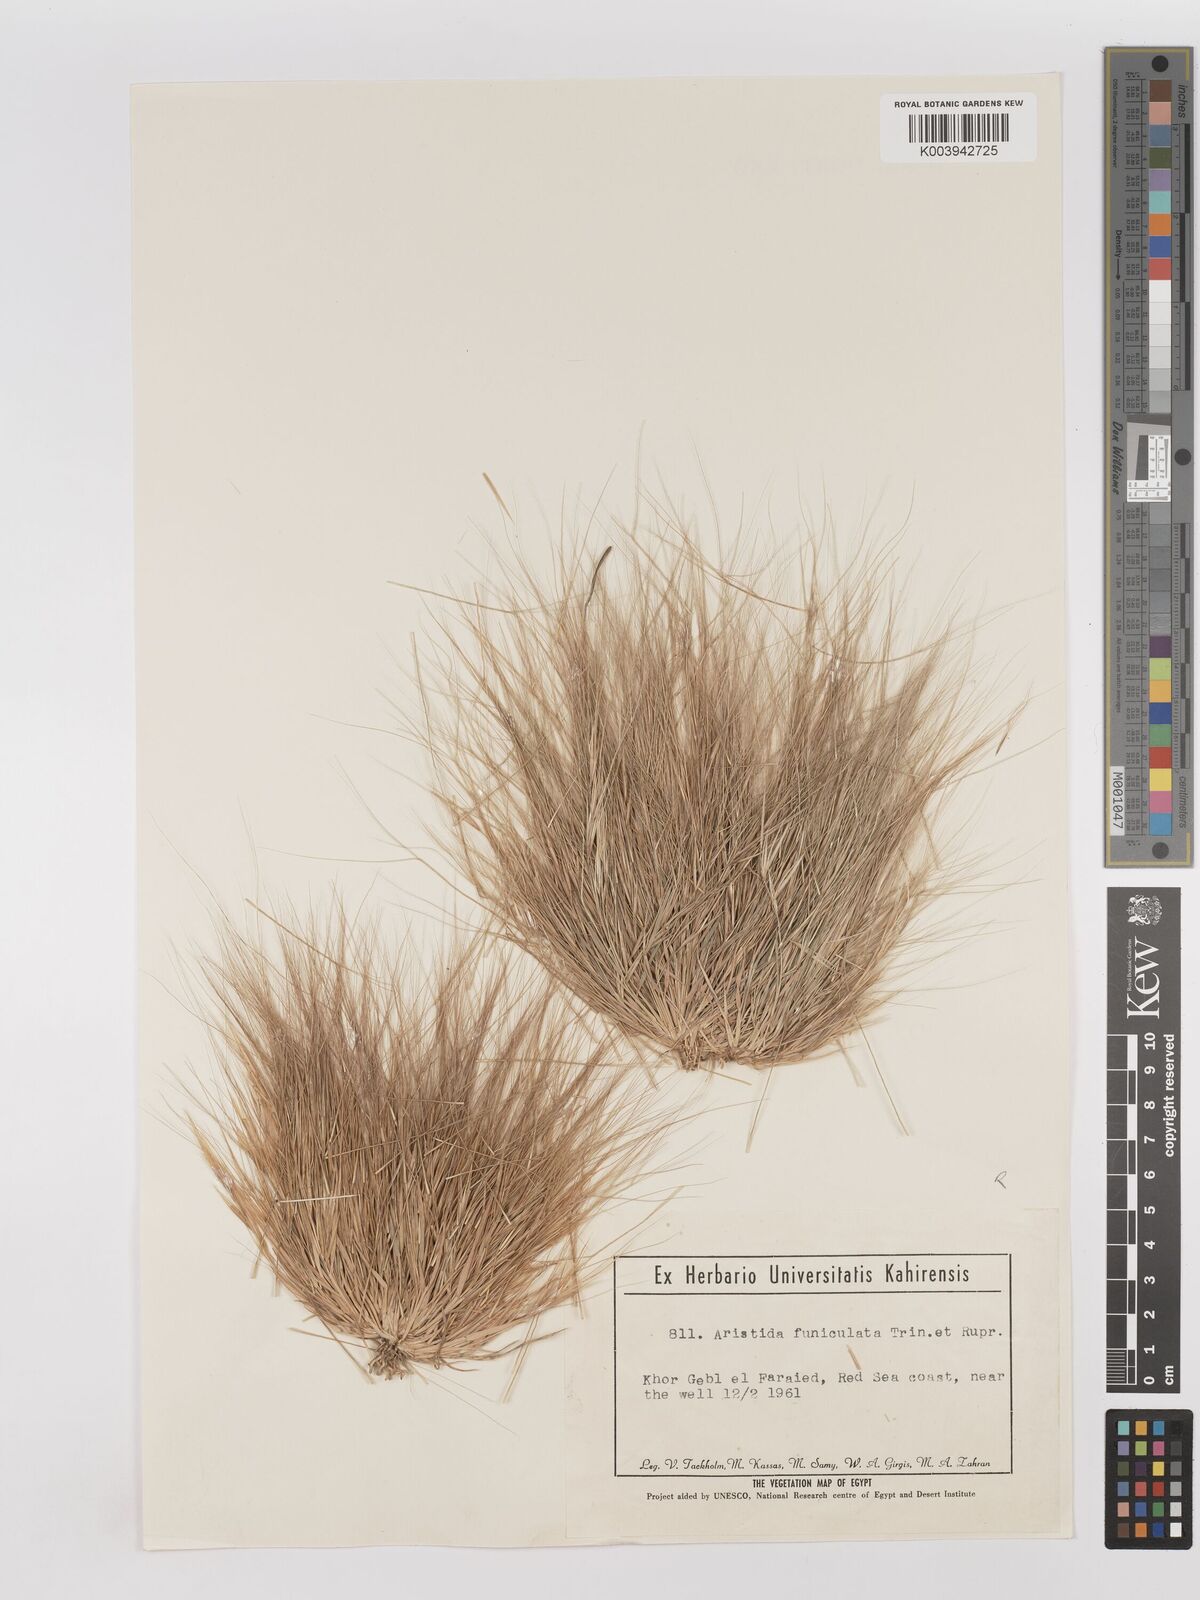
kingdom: Plantae
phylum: Tracheophyta
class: Liliopsida
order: Poales
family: Poaceae
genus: Aristida
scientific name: Aristida funiculata
